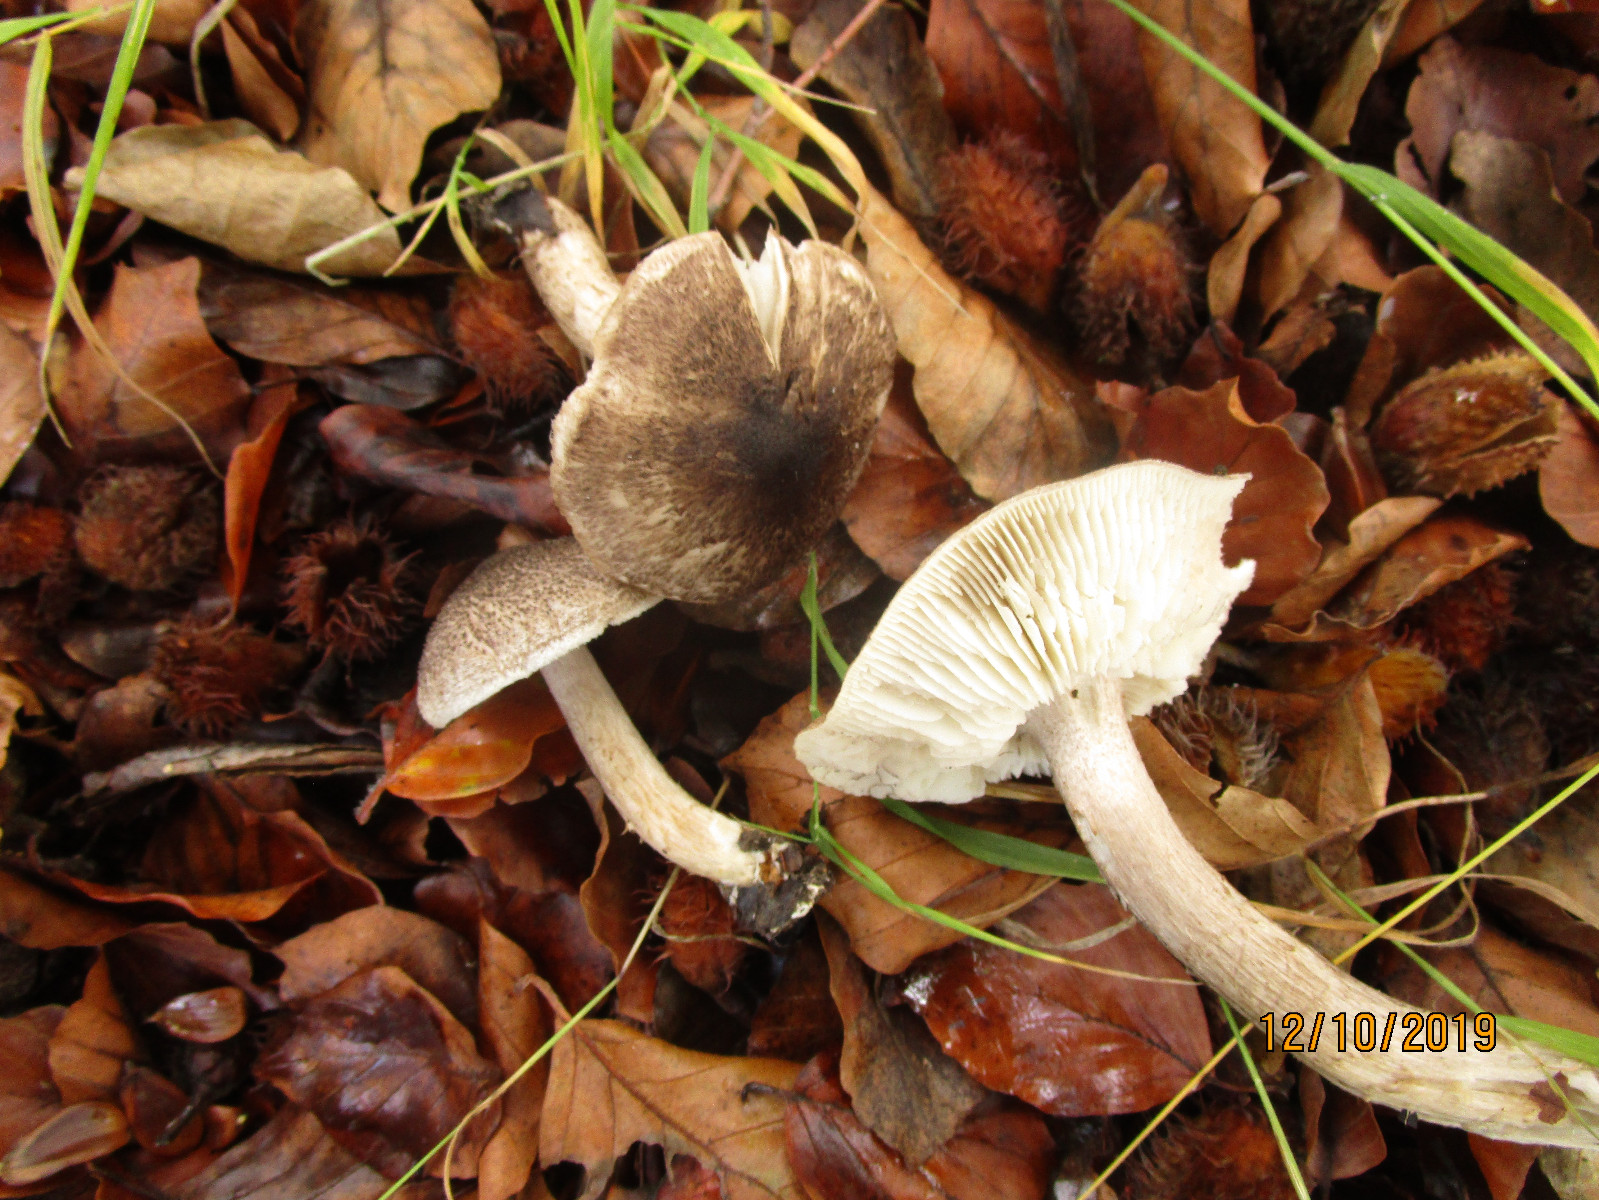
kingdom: Fungi
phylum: Basidiomycota
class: Agaricomycetes
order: Agaricales
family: Tricholomataceae
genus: Tricholoma
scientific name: Tricholoma atrosquamosum
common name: sortskællet ridderhat
